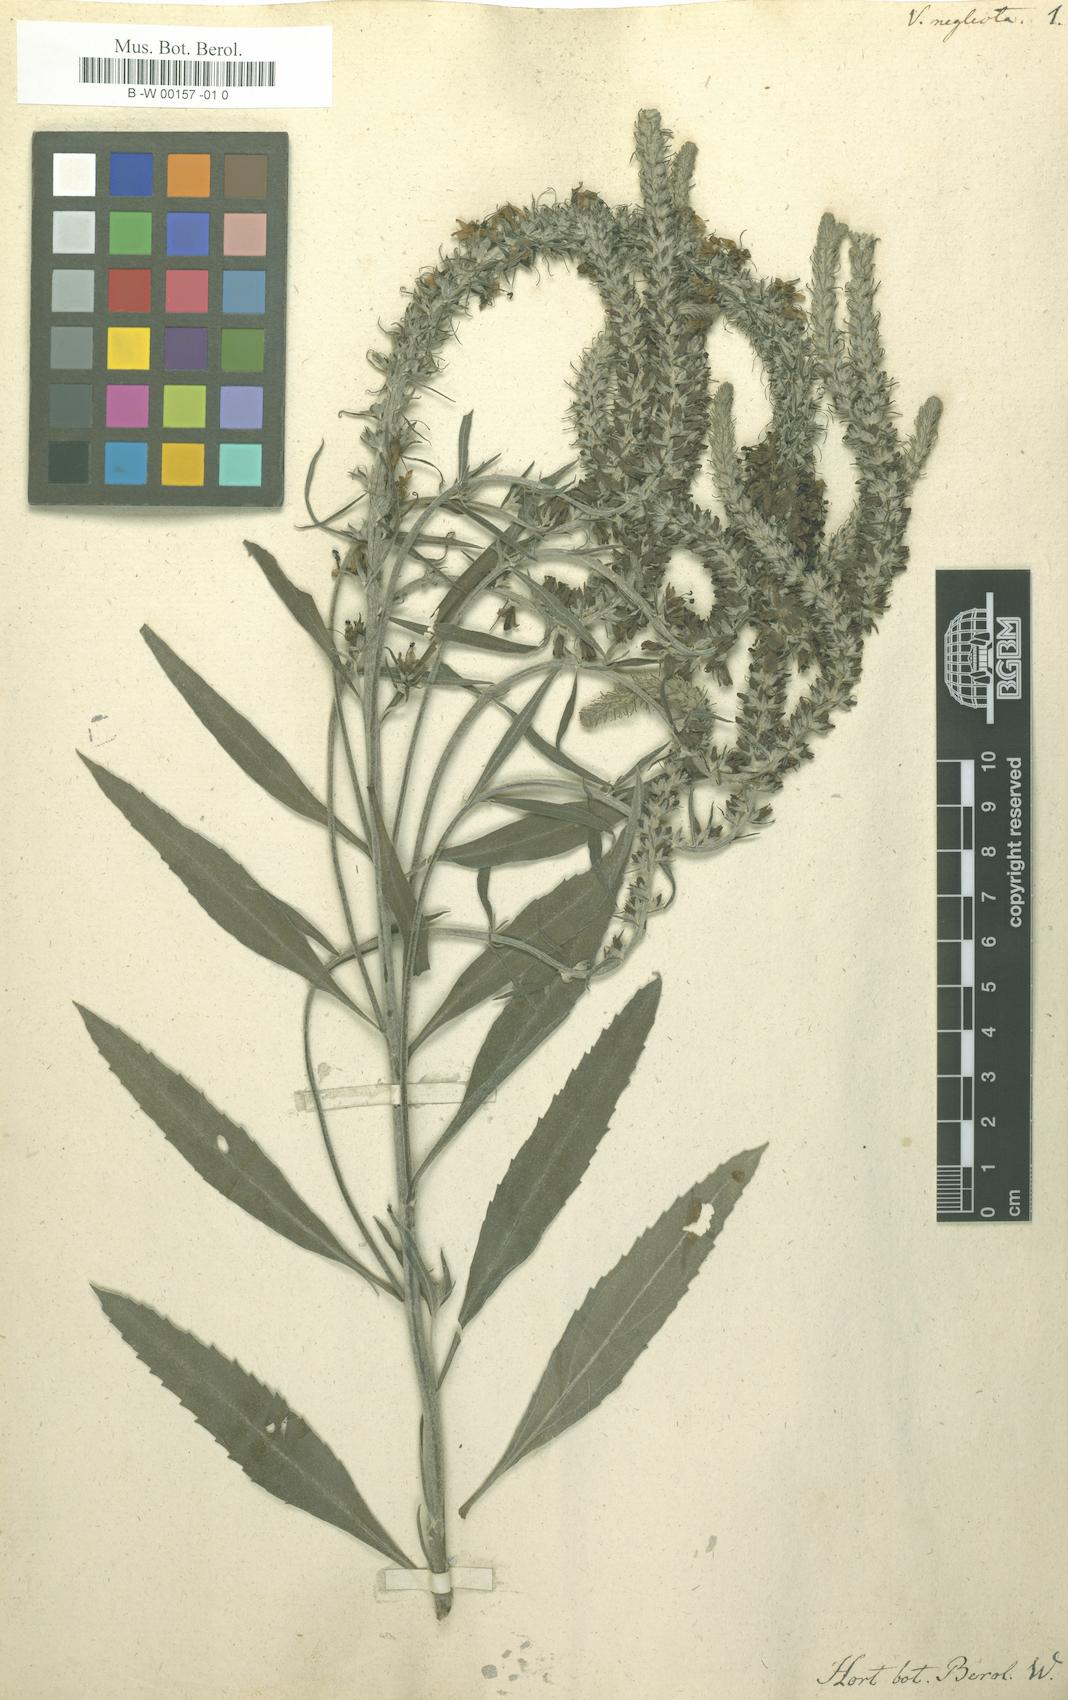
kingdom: Plantae
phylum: Tracheophyta
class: Magnoliopsida
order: Lamiales
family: Plantaginaceae
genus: Veronica
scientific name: Veronica
